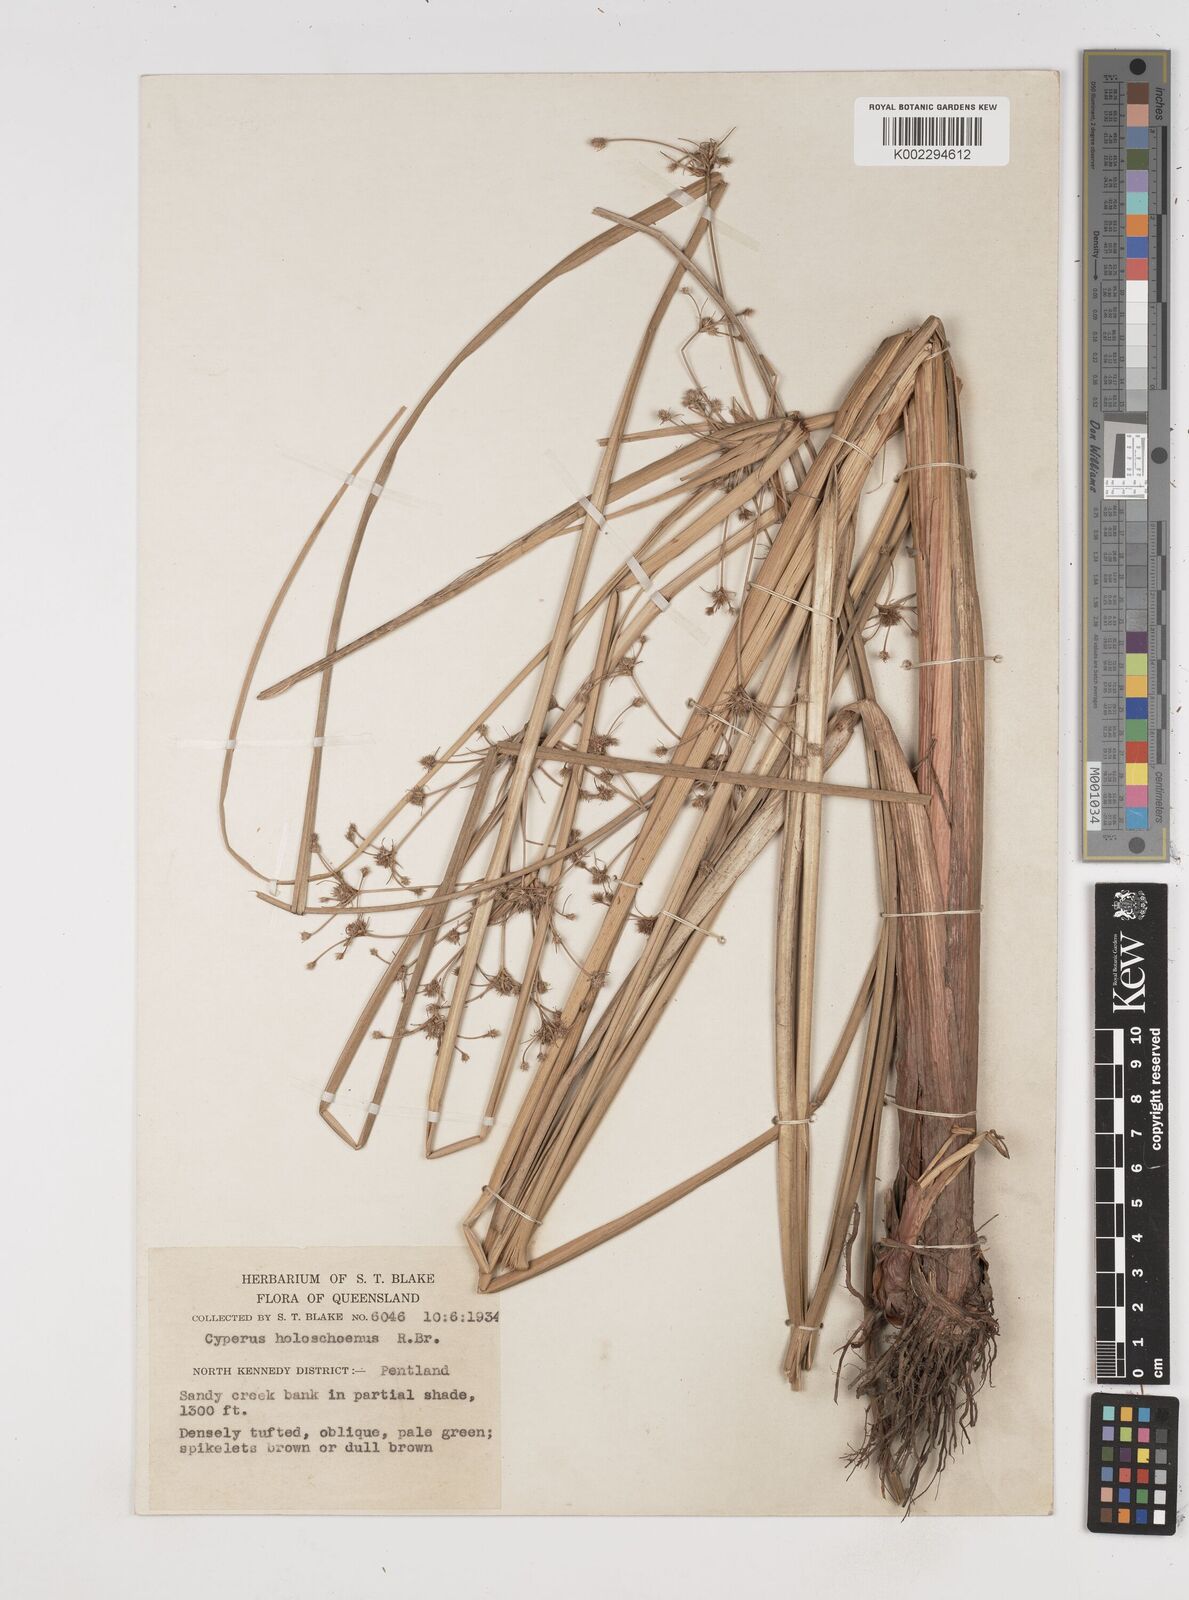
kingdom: Plantae
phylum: Tracheophyta
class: Liliopsida
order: Poales
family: Cyperaceae
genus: Cyperus
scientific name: Cyperus holoschoenus
